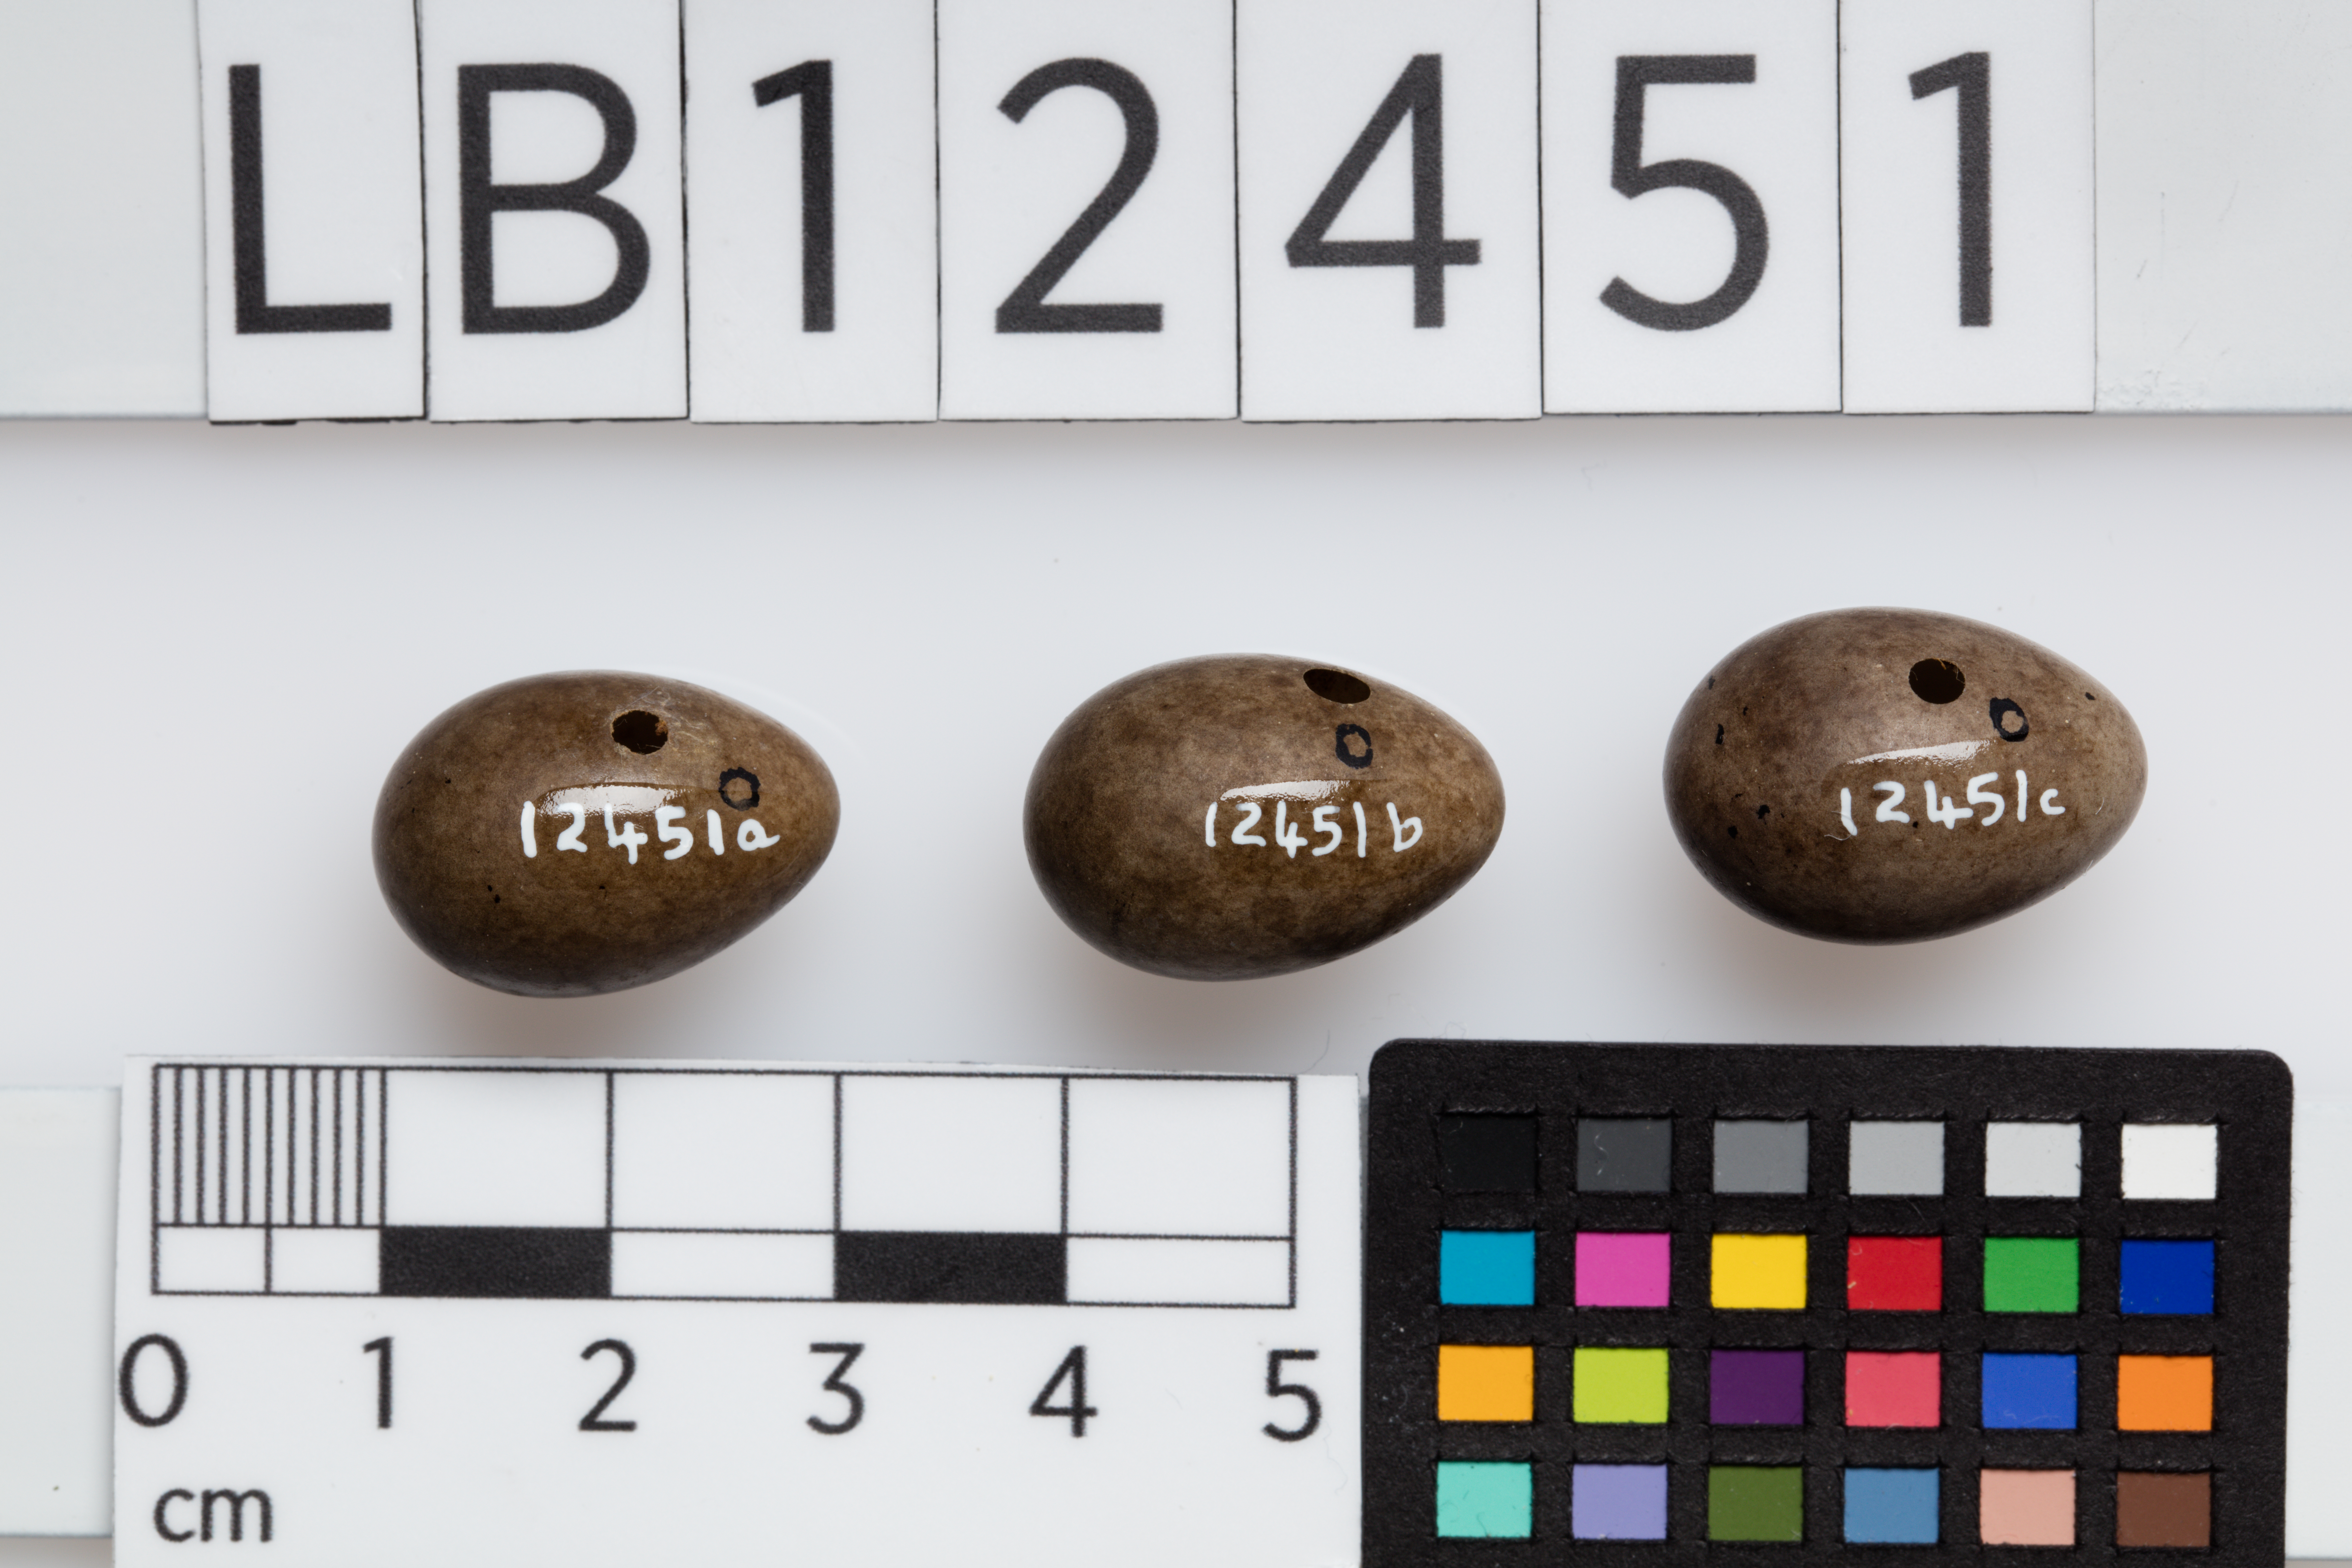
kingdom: Animalia
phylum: Chordata
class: Aves
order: Passeriformes
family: Motacillidae
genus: Anthus
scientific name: Anthus pratensis
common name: Meadow pipit
